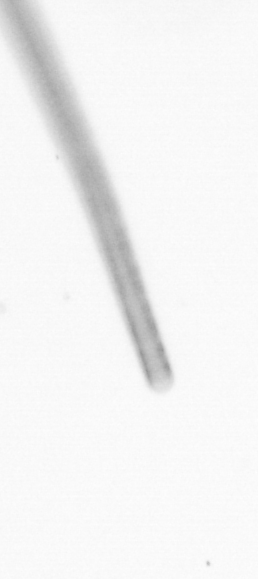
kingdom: Chromista
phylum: Ochrophyta
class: Bacillariophyceae
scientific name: Bacillariophyceae
